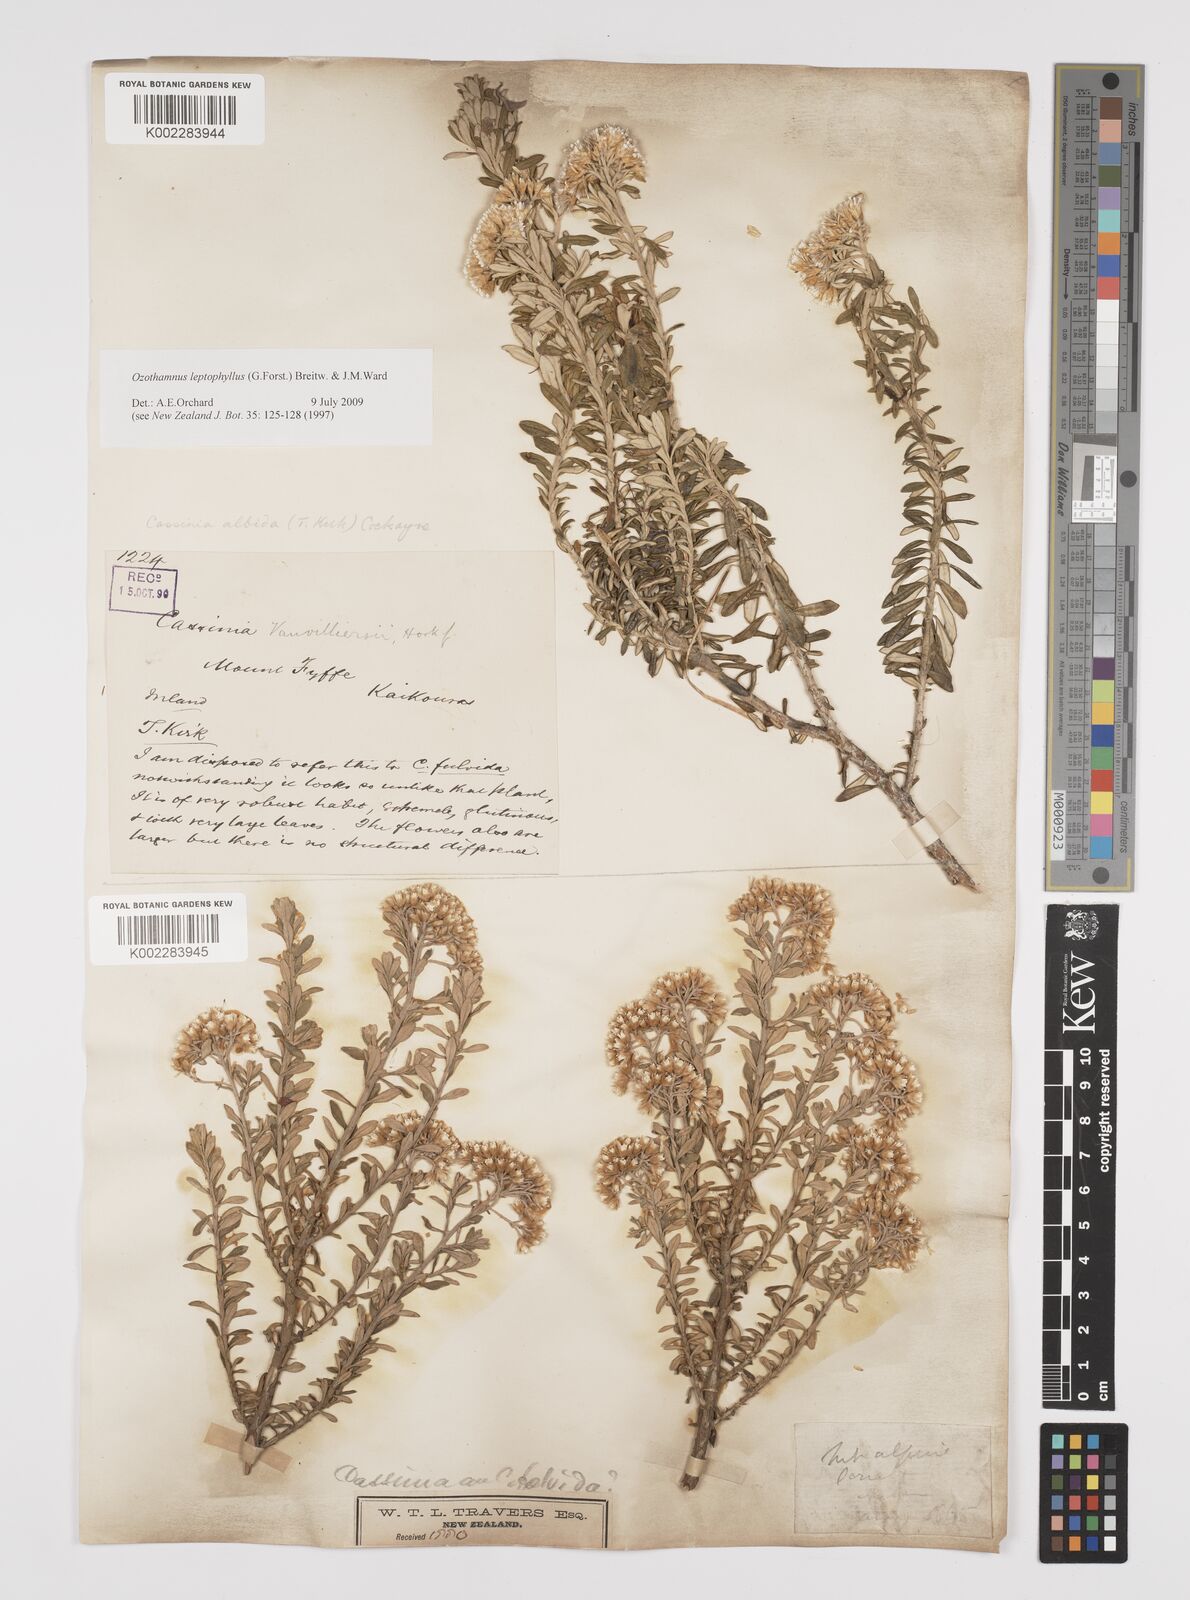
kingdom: Plantae
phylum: Tracheophyta
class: Magnoliopsida
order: Asterales
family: Asteraceae
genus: Ozothamnus
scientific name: Ozothamnus leptophyllus
